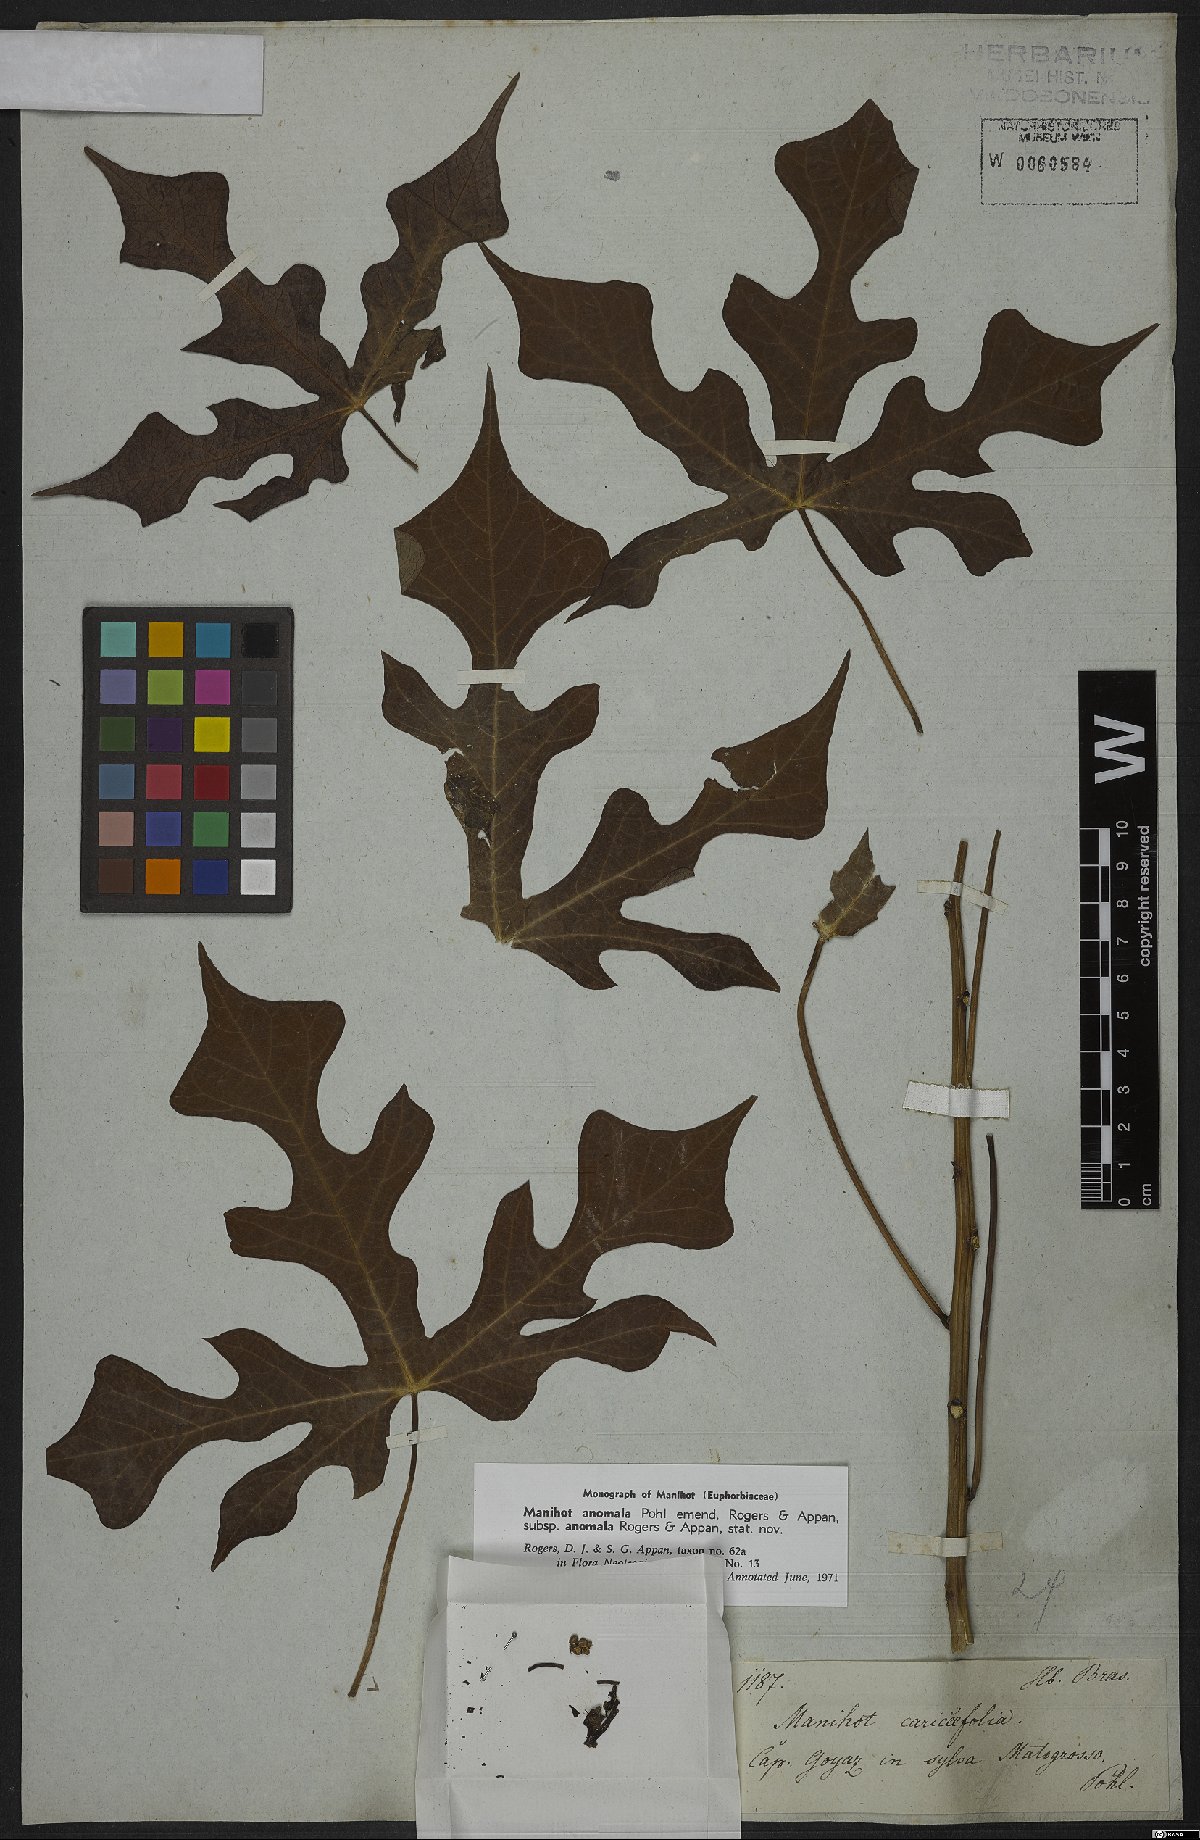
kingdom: Plantae
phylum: Tracheophyta
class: Magnoliopsida
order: Malpighiales
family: Euphorbiaceae
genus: Manihot
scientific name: Manihot anomala
